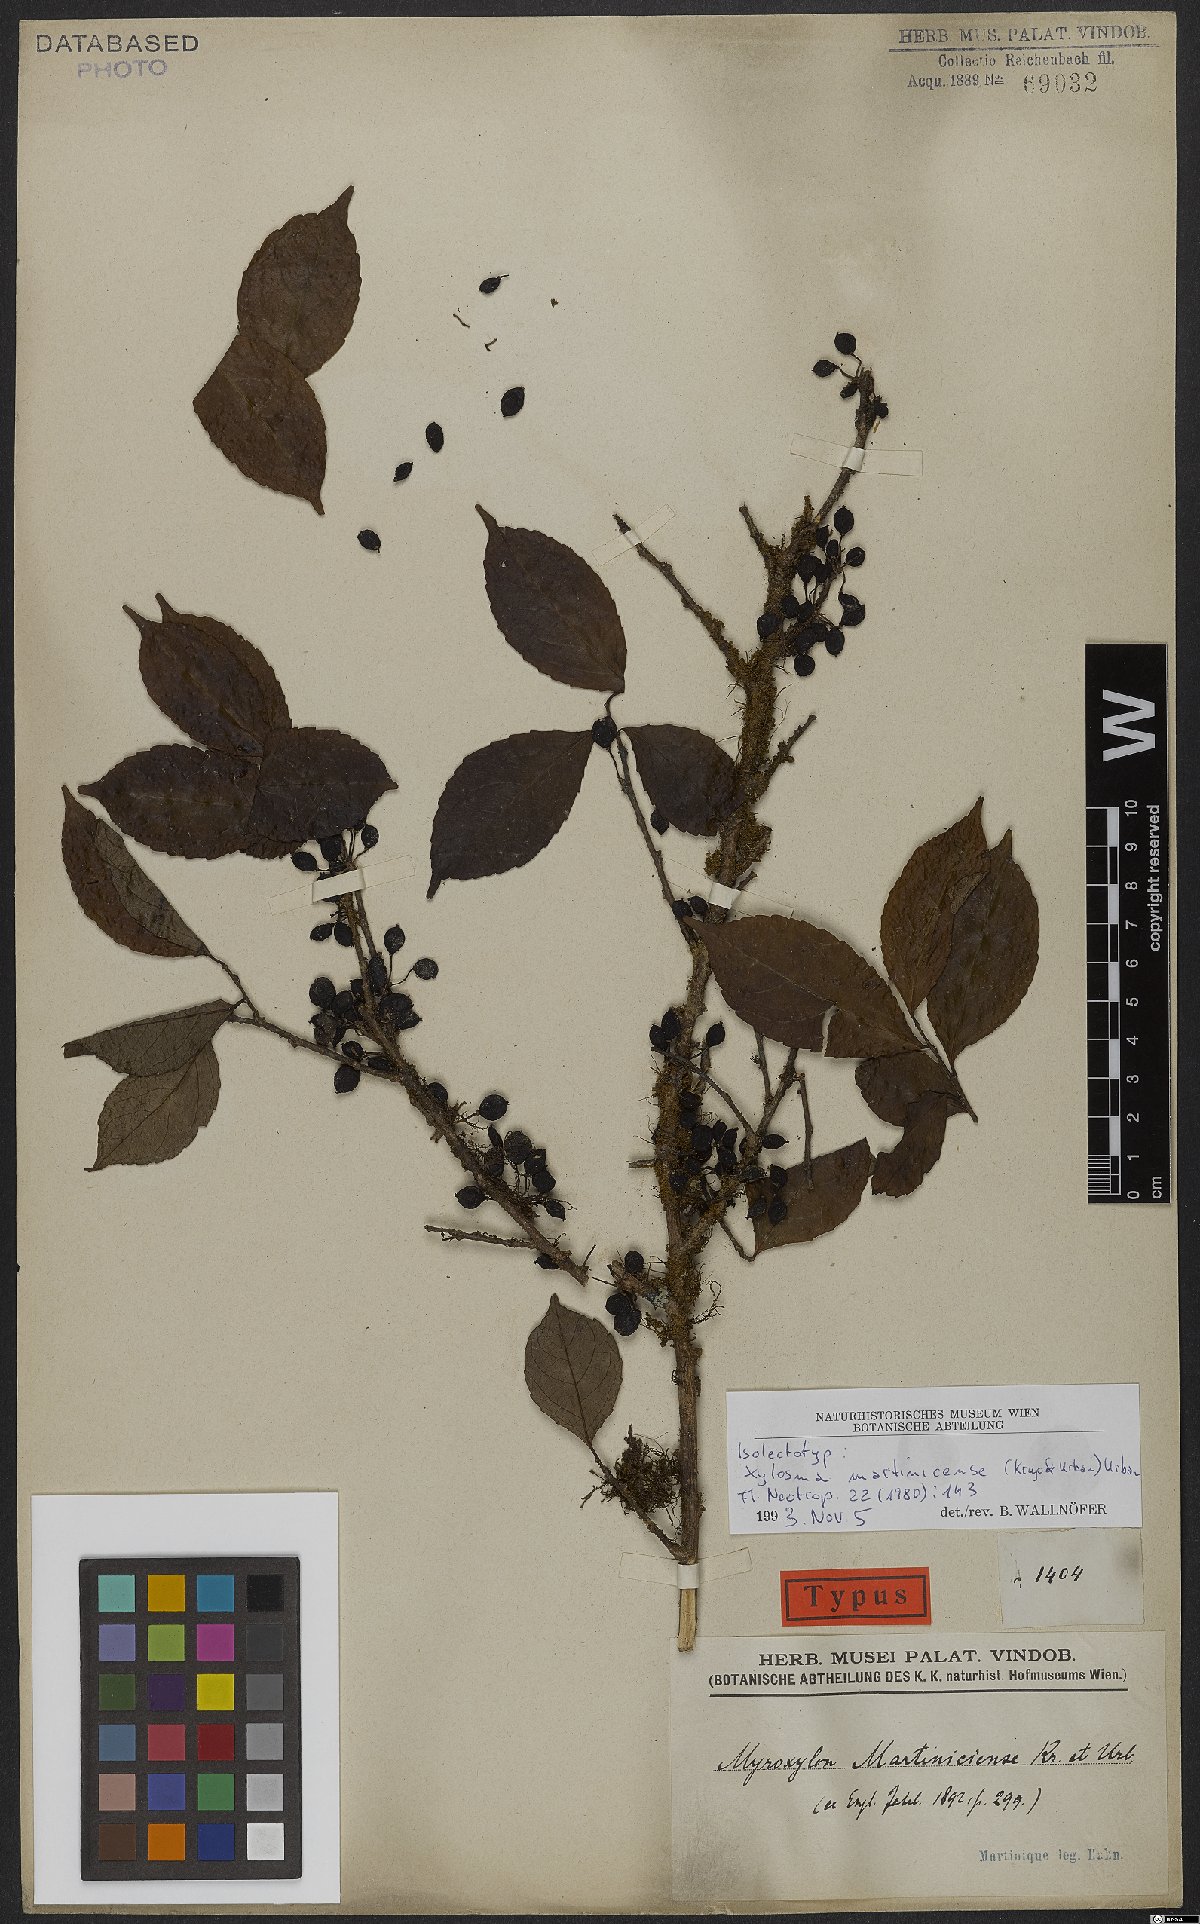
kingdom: Plantae
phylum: Tracheophyta
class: Magnoliopsida
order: Malpighiales
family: Salicaceae
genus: Xylosma
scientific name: Xylosma martinicensis
